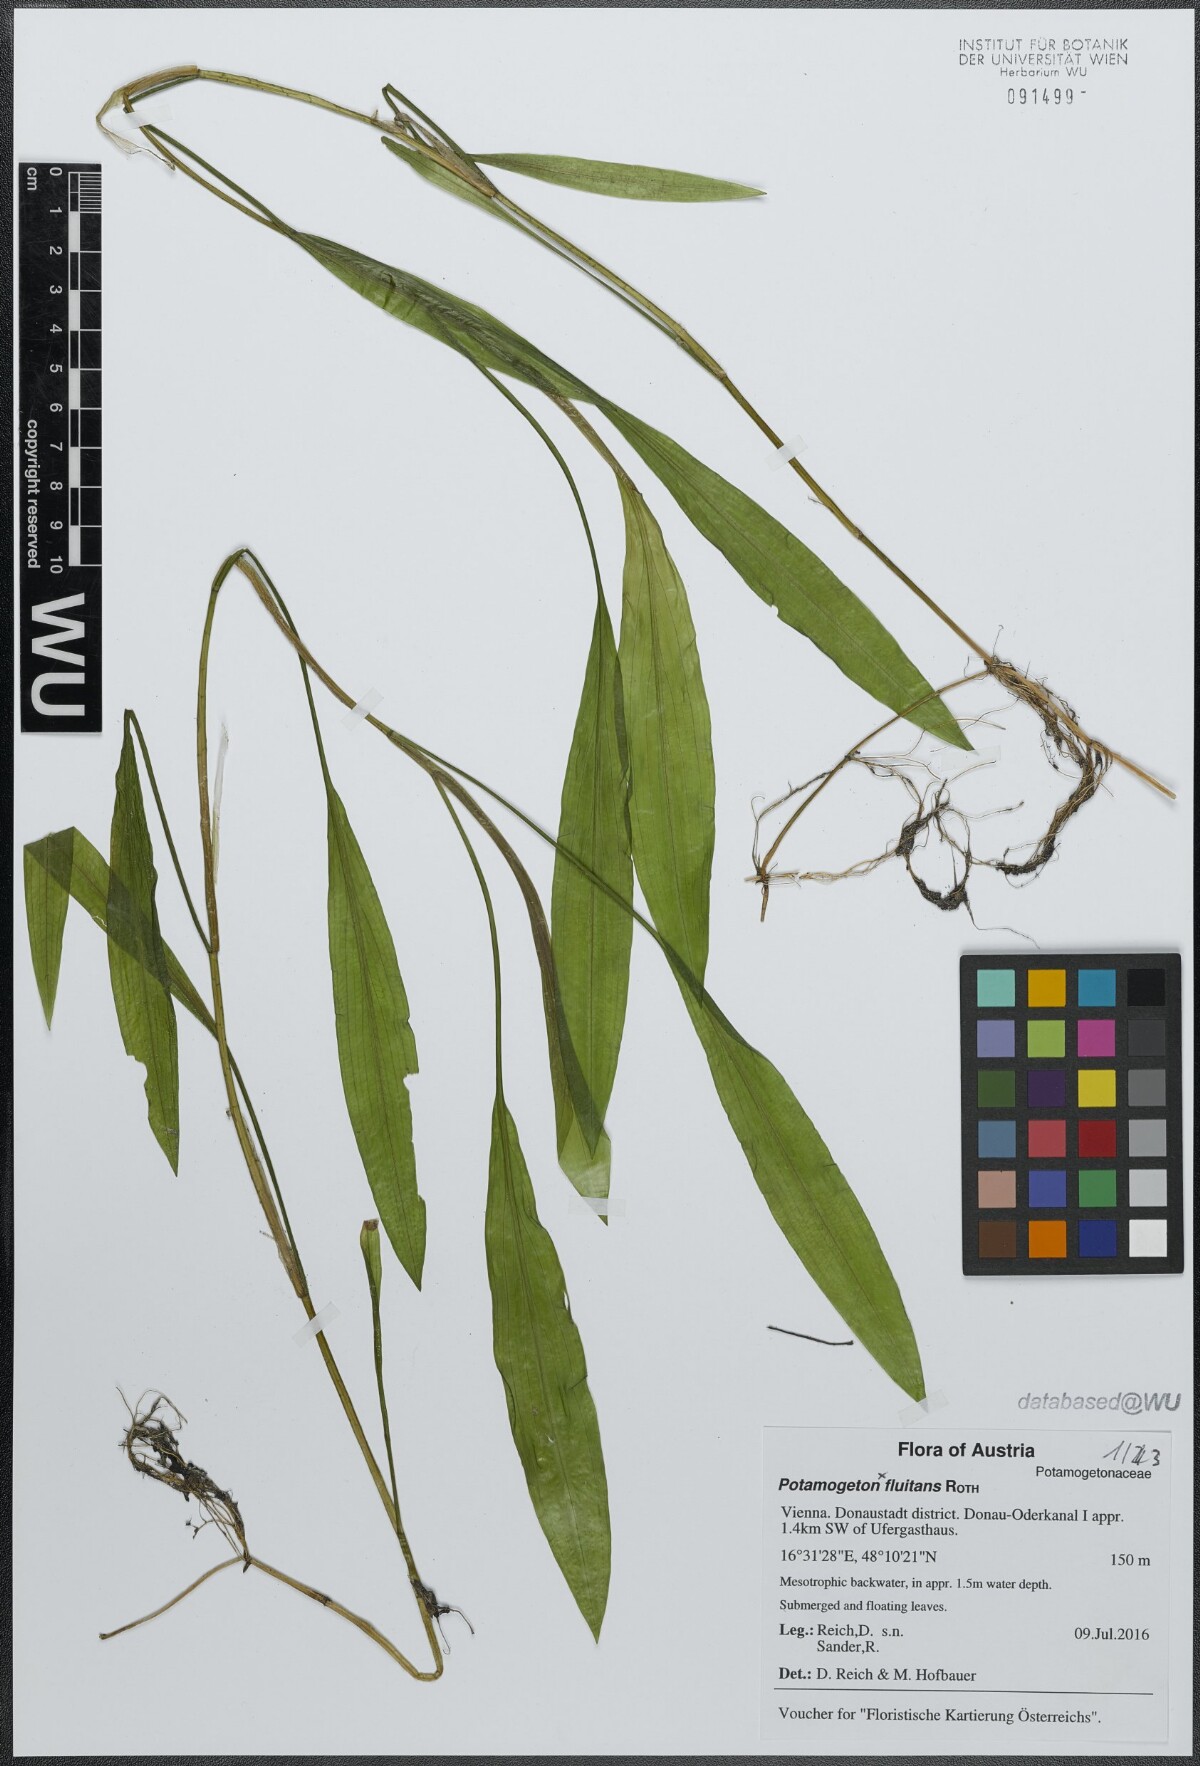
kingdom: Plantae
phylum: Tracheophyta
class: Liliopsida
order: Alismatales
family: Potamogetonaceae
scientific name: Potamogetonaceae
